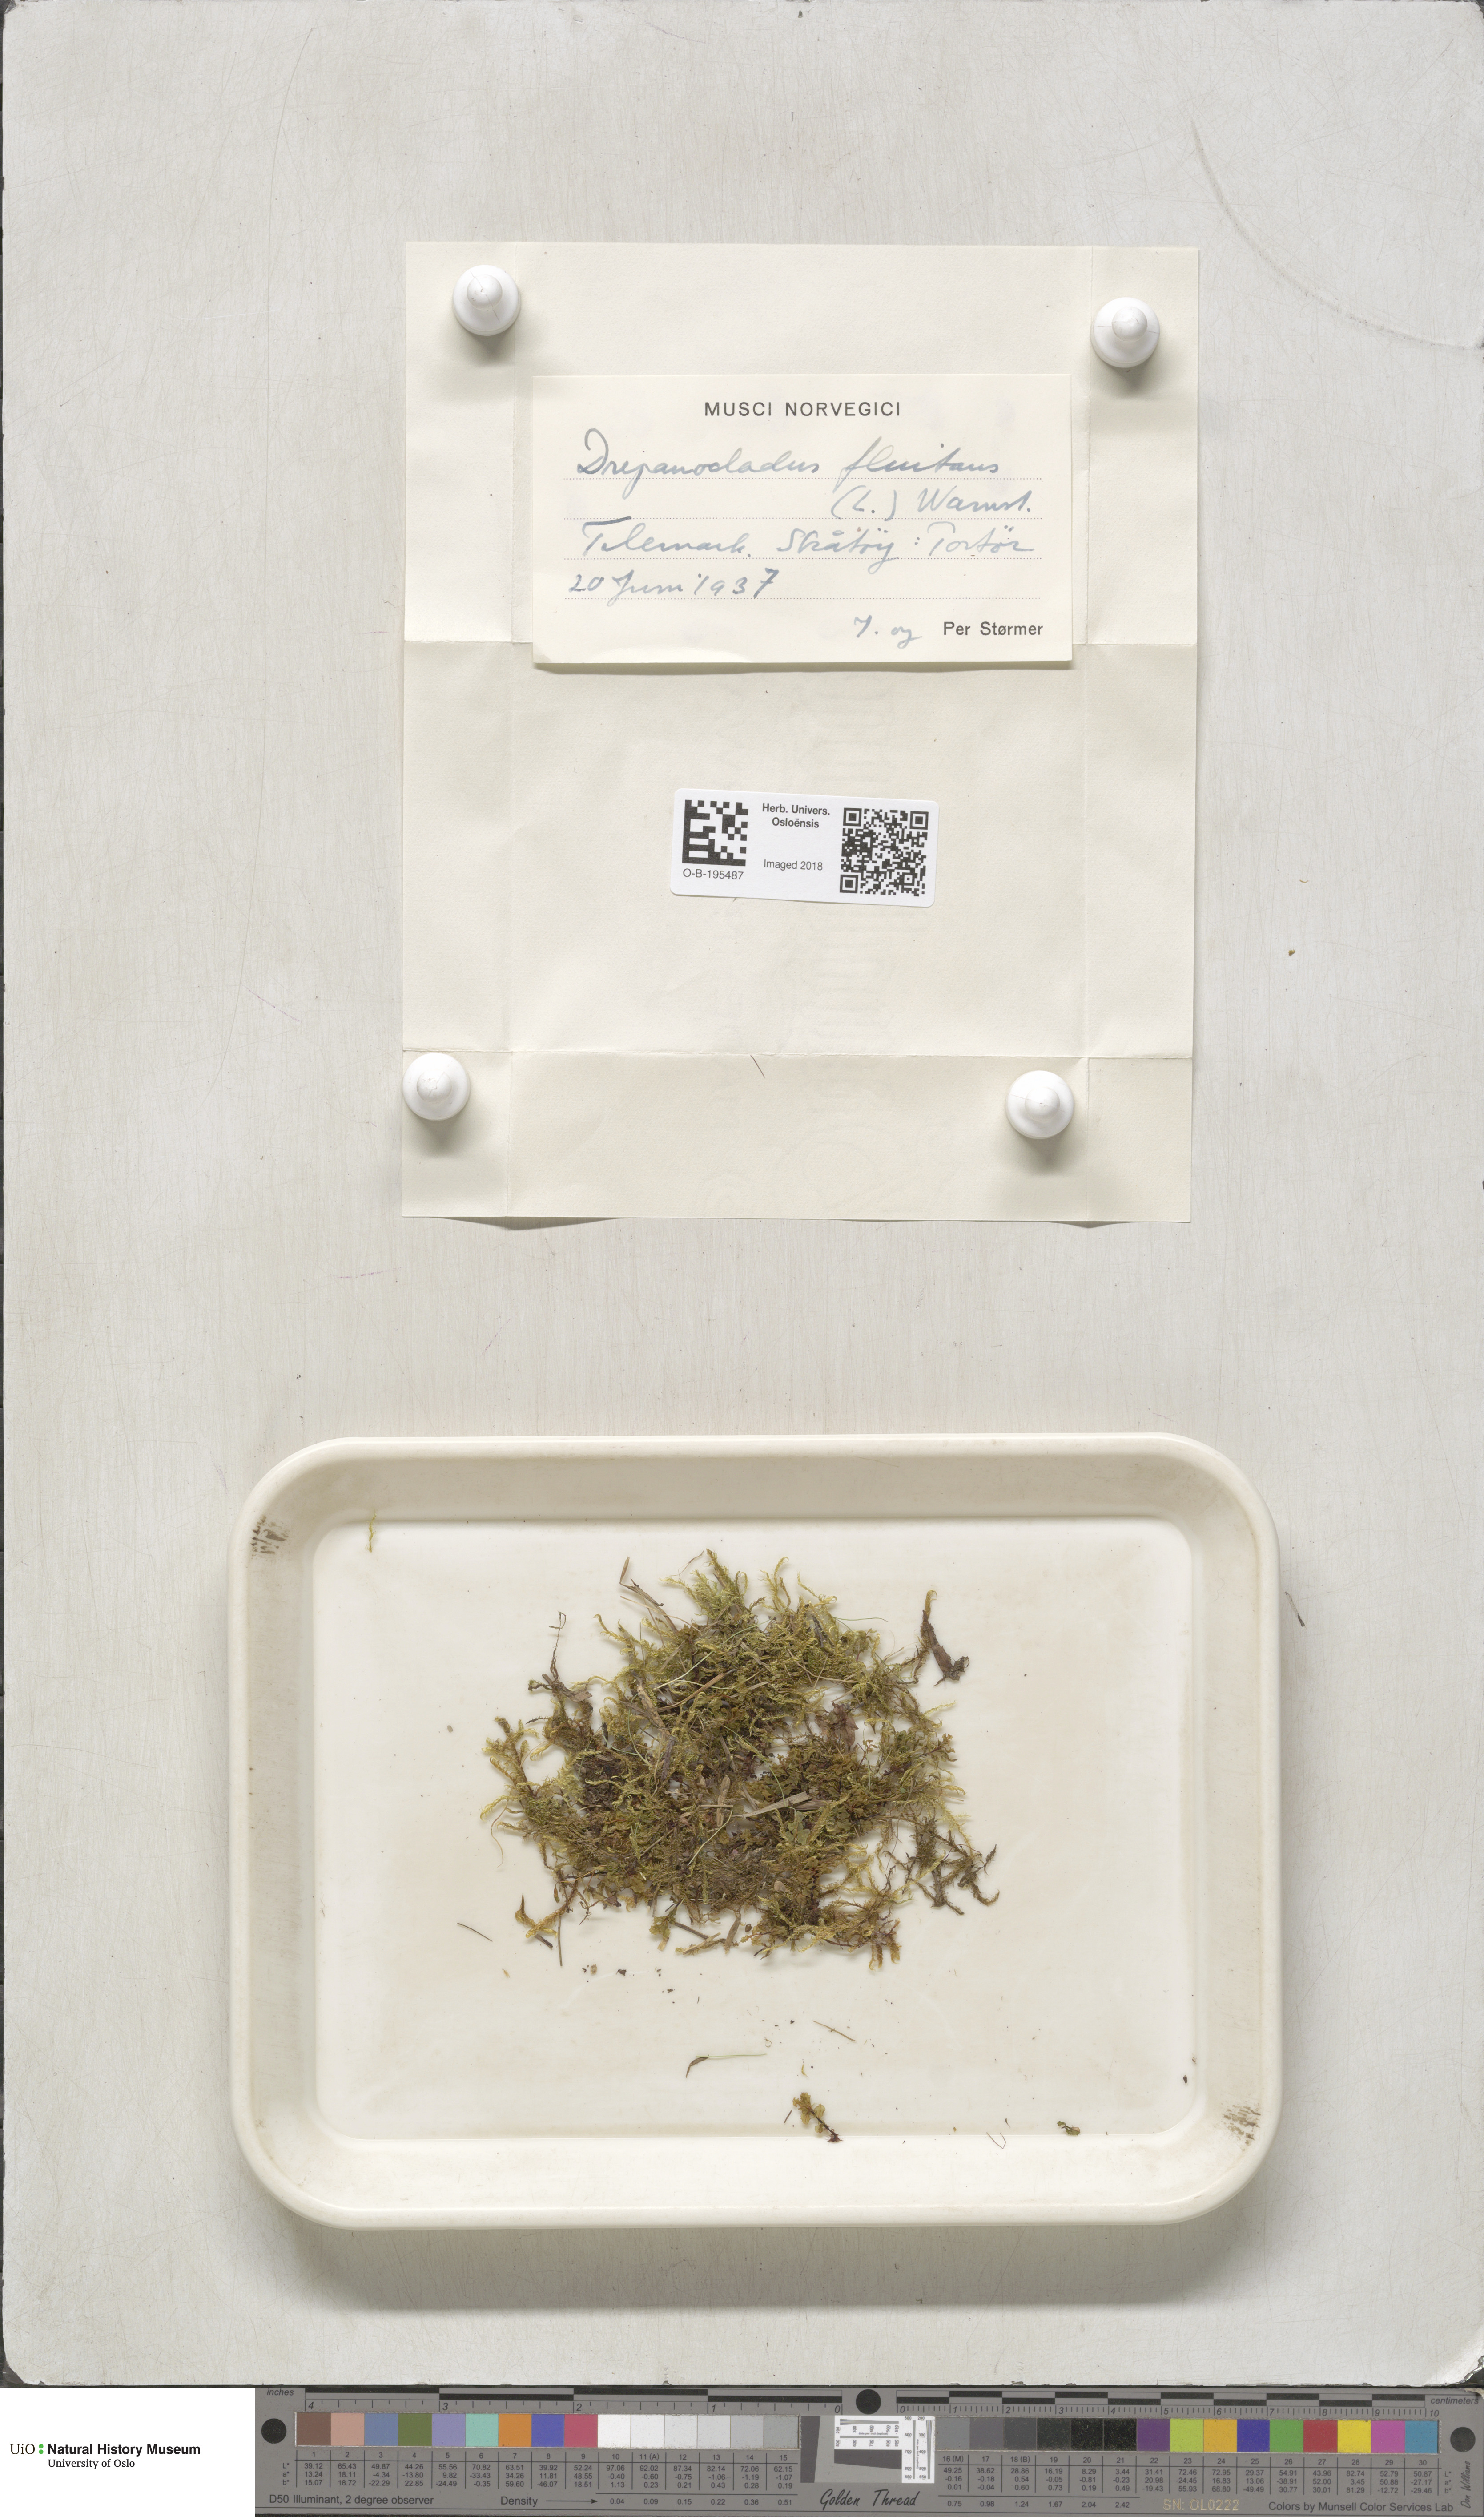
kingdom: Plantae
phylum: Bryophyta
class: Bryopsida
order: Hypnales
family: Calliergonaceae
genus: Warnstorfia
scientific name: Warnstorfia fluitans
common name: Floating hook moss
